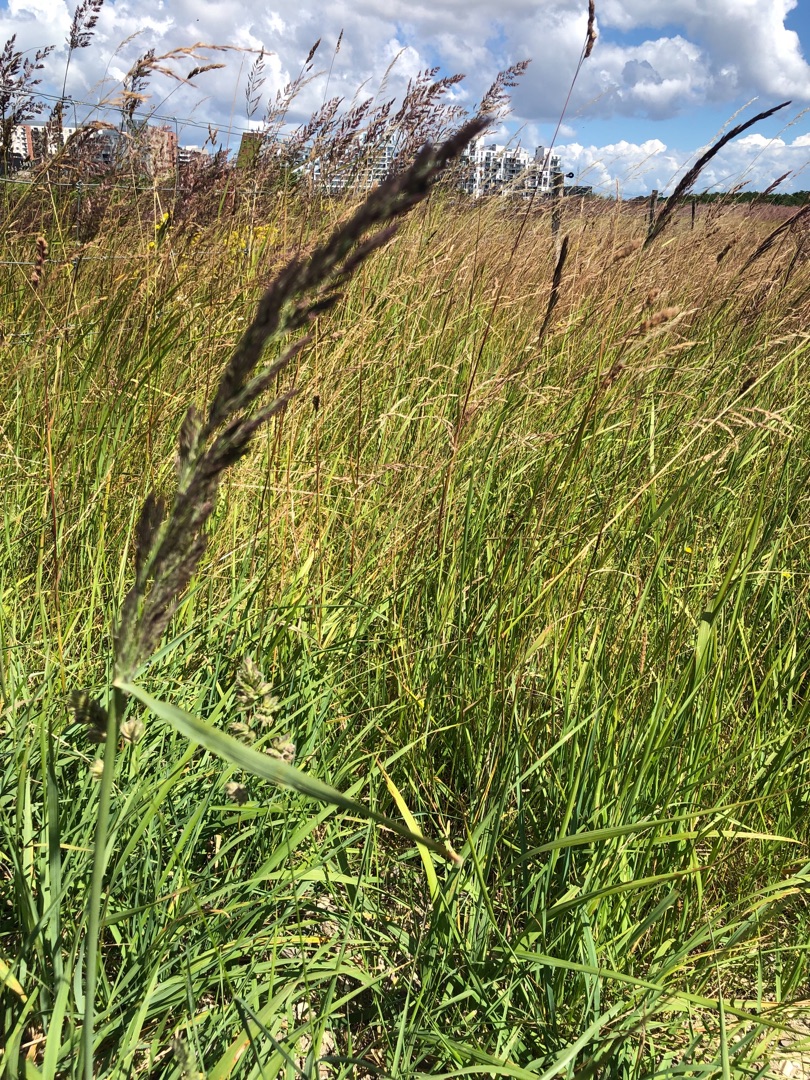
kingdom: Plantae
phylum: Tracheophyta
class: Liliopsida
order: Poales
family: Poaceae
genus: Calamagrostis
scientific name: Calamagrostis epigejos
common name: Bjerg-rørhvene
